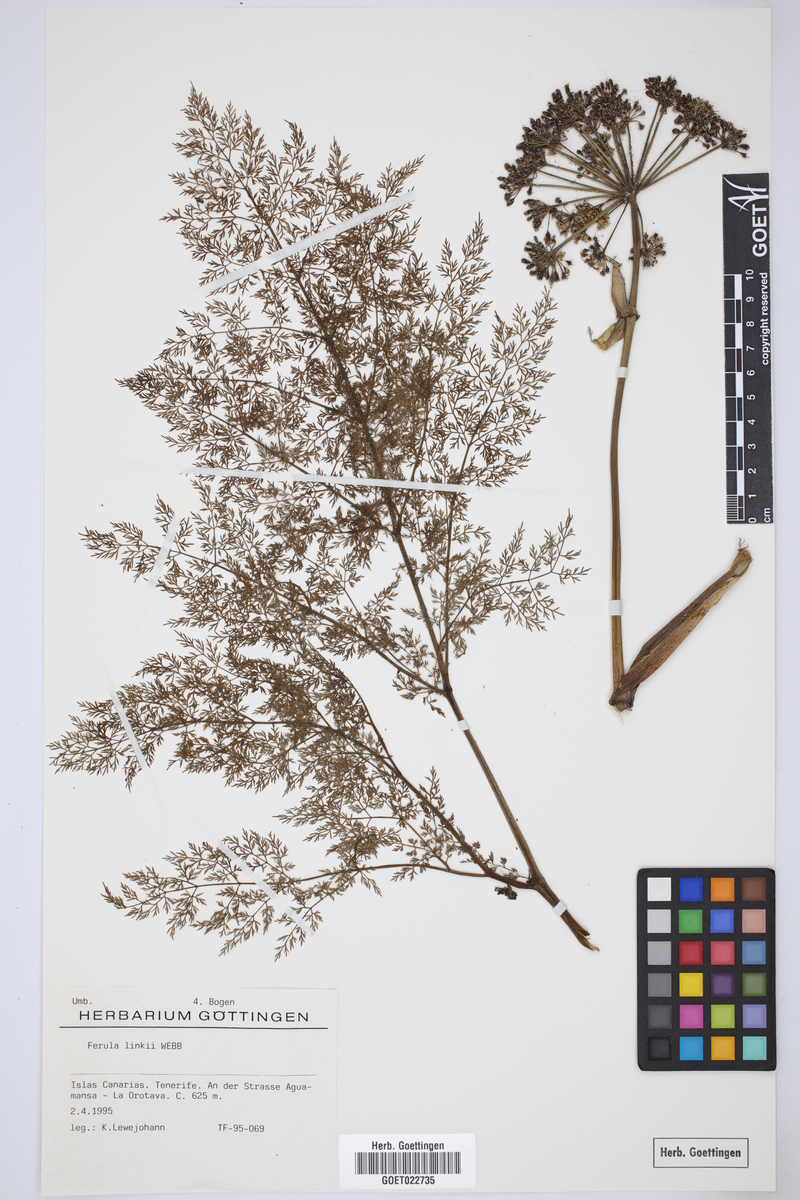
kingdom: Plantae
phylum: Tracheophyta
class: Magnoliopsida
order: Apiales
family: Apiaceae
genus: Ferula
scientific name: Ferula communis
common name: Giant fennel
